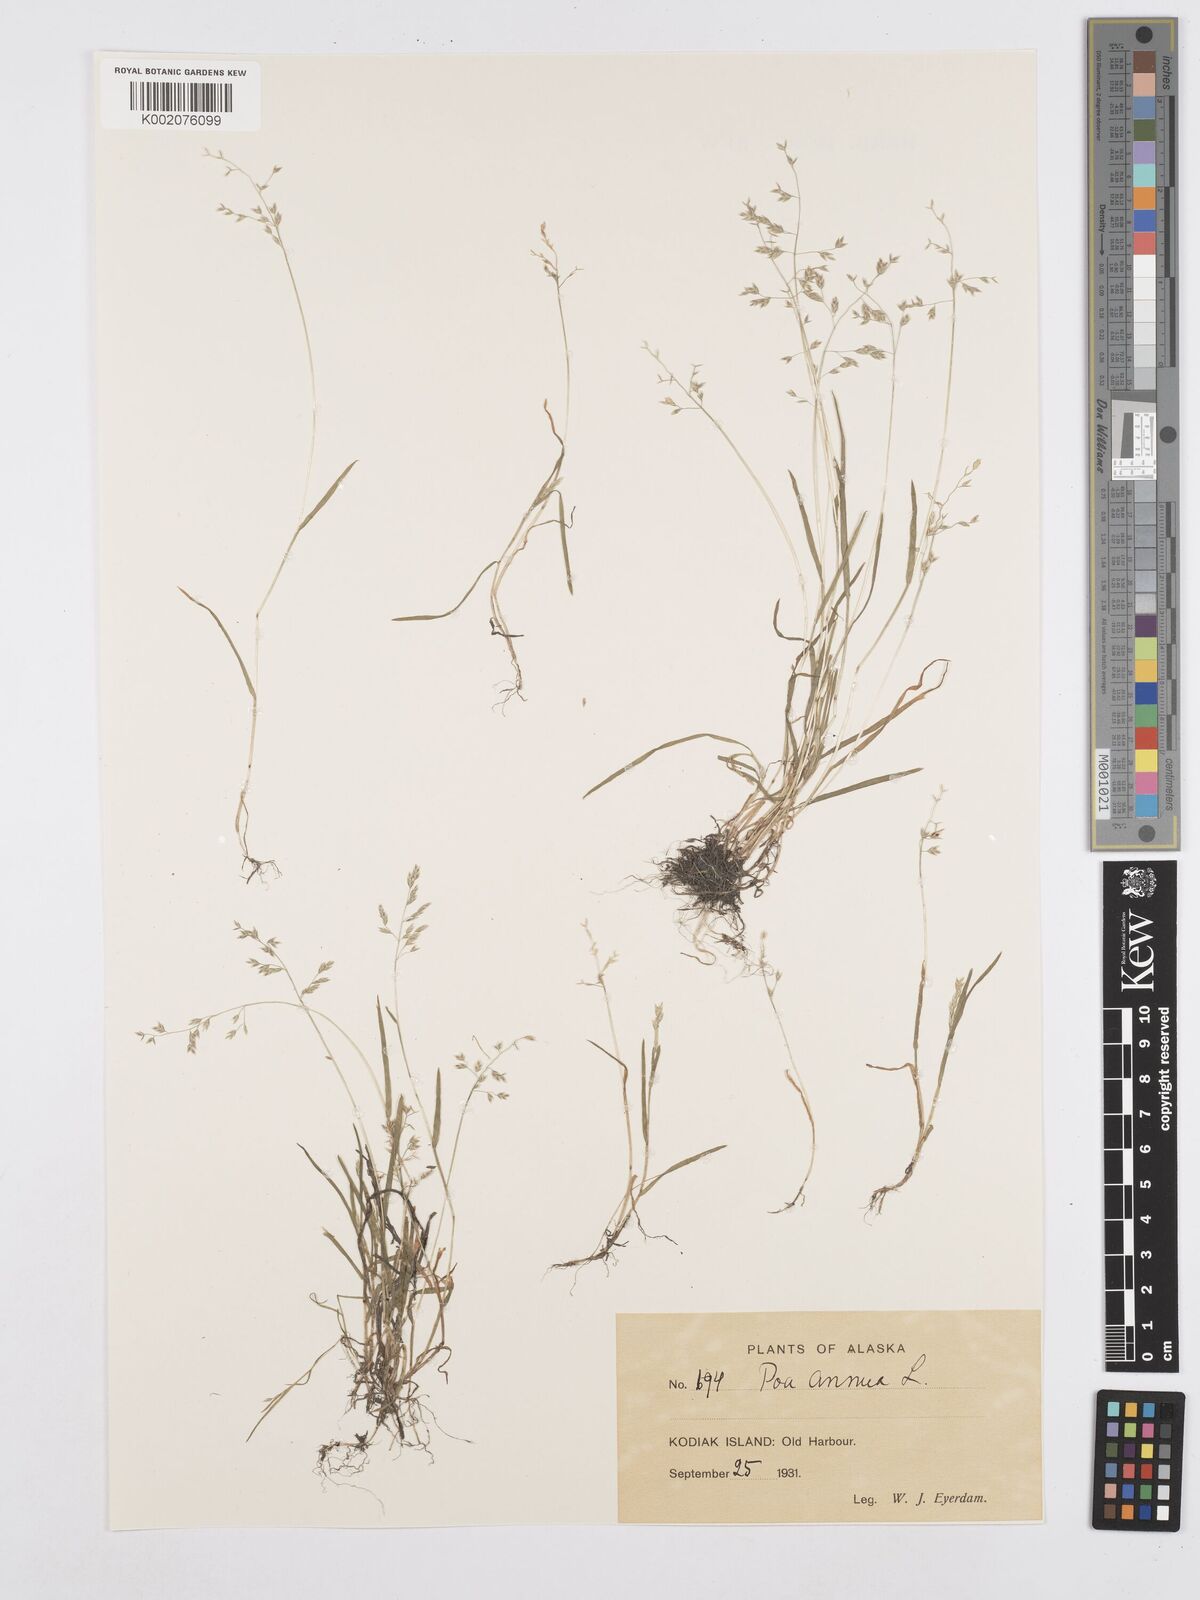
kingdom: Plantae
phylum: Tracheophyta
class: Liliopsida
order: Poales
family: Poaceae
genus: Poa
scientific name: Poa annua
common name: Annual bluegrass
